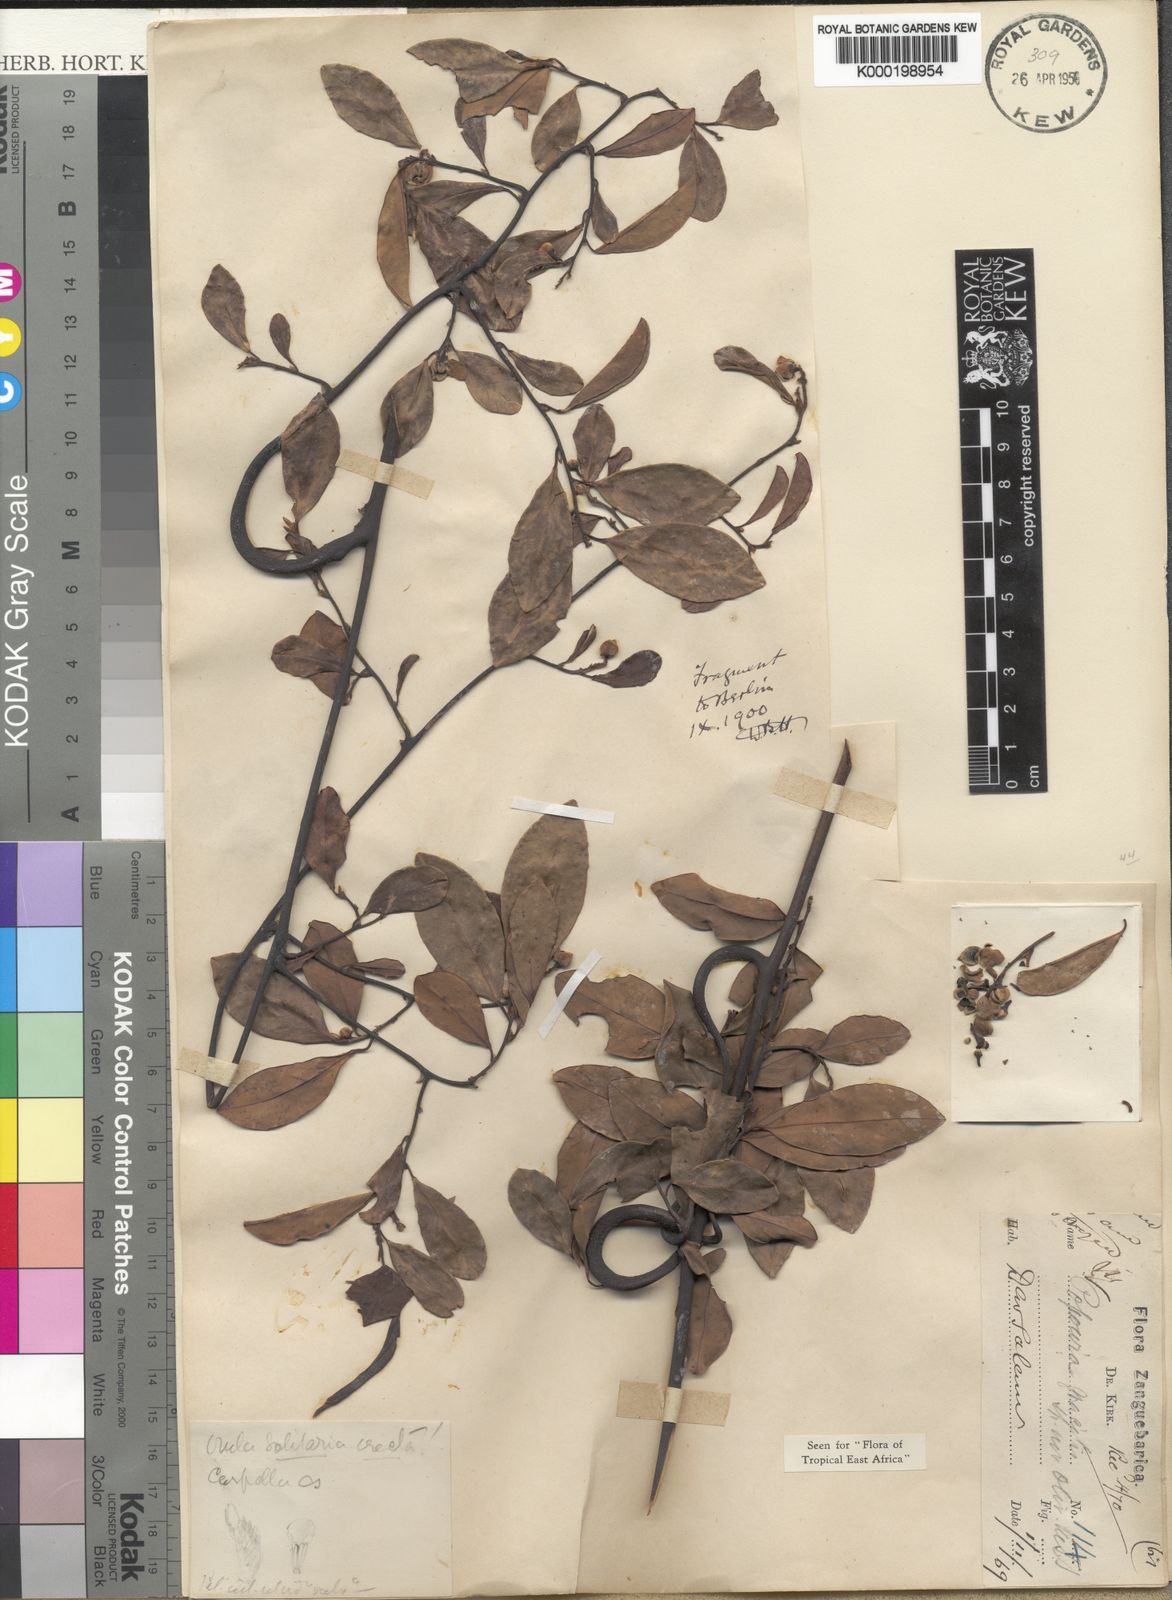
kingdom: Plantae
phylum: Tracheophyta
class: Magnoliopsida
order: Magnoliales
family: Annonaceae
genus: Sphaerocoryne
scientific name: Sphaerocoryne gracilis
